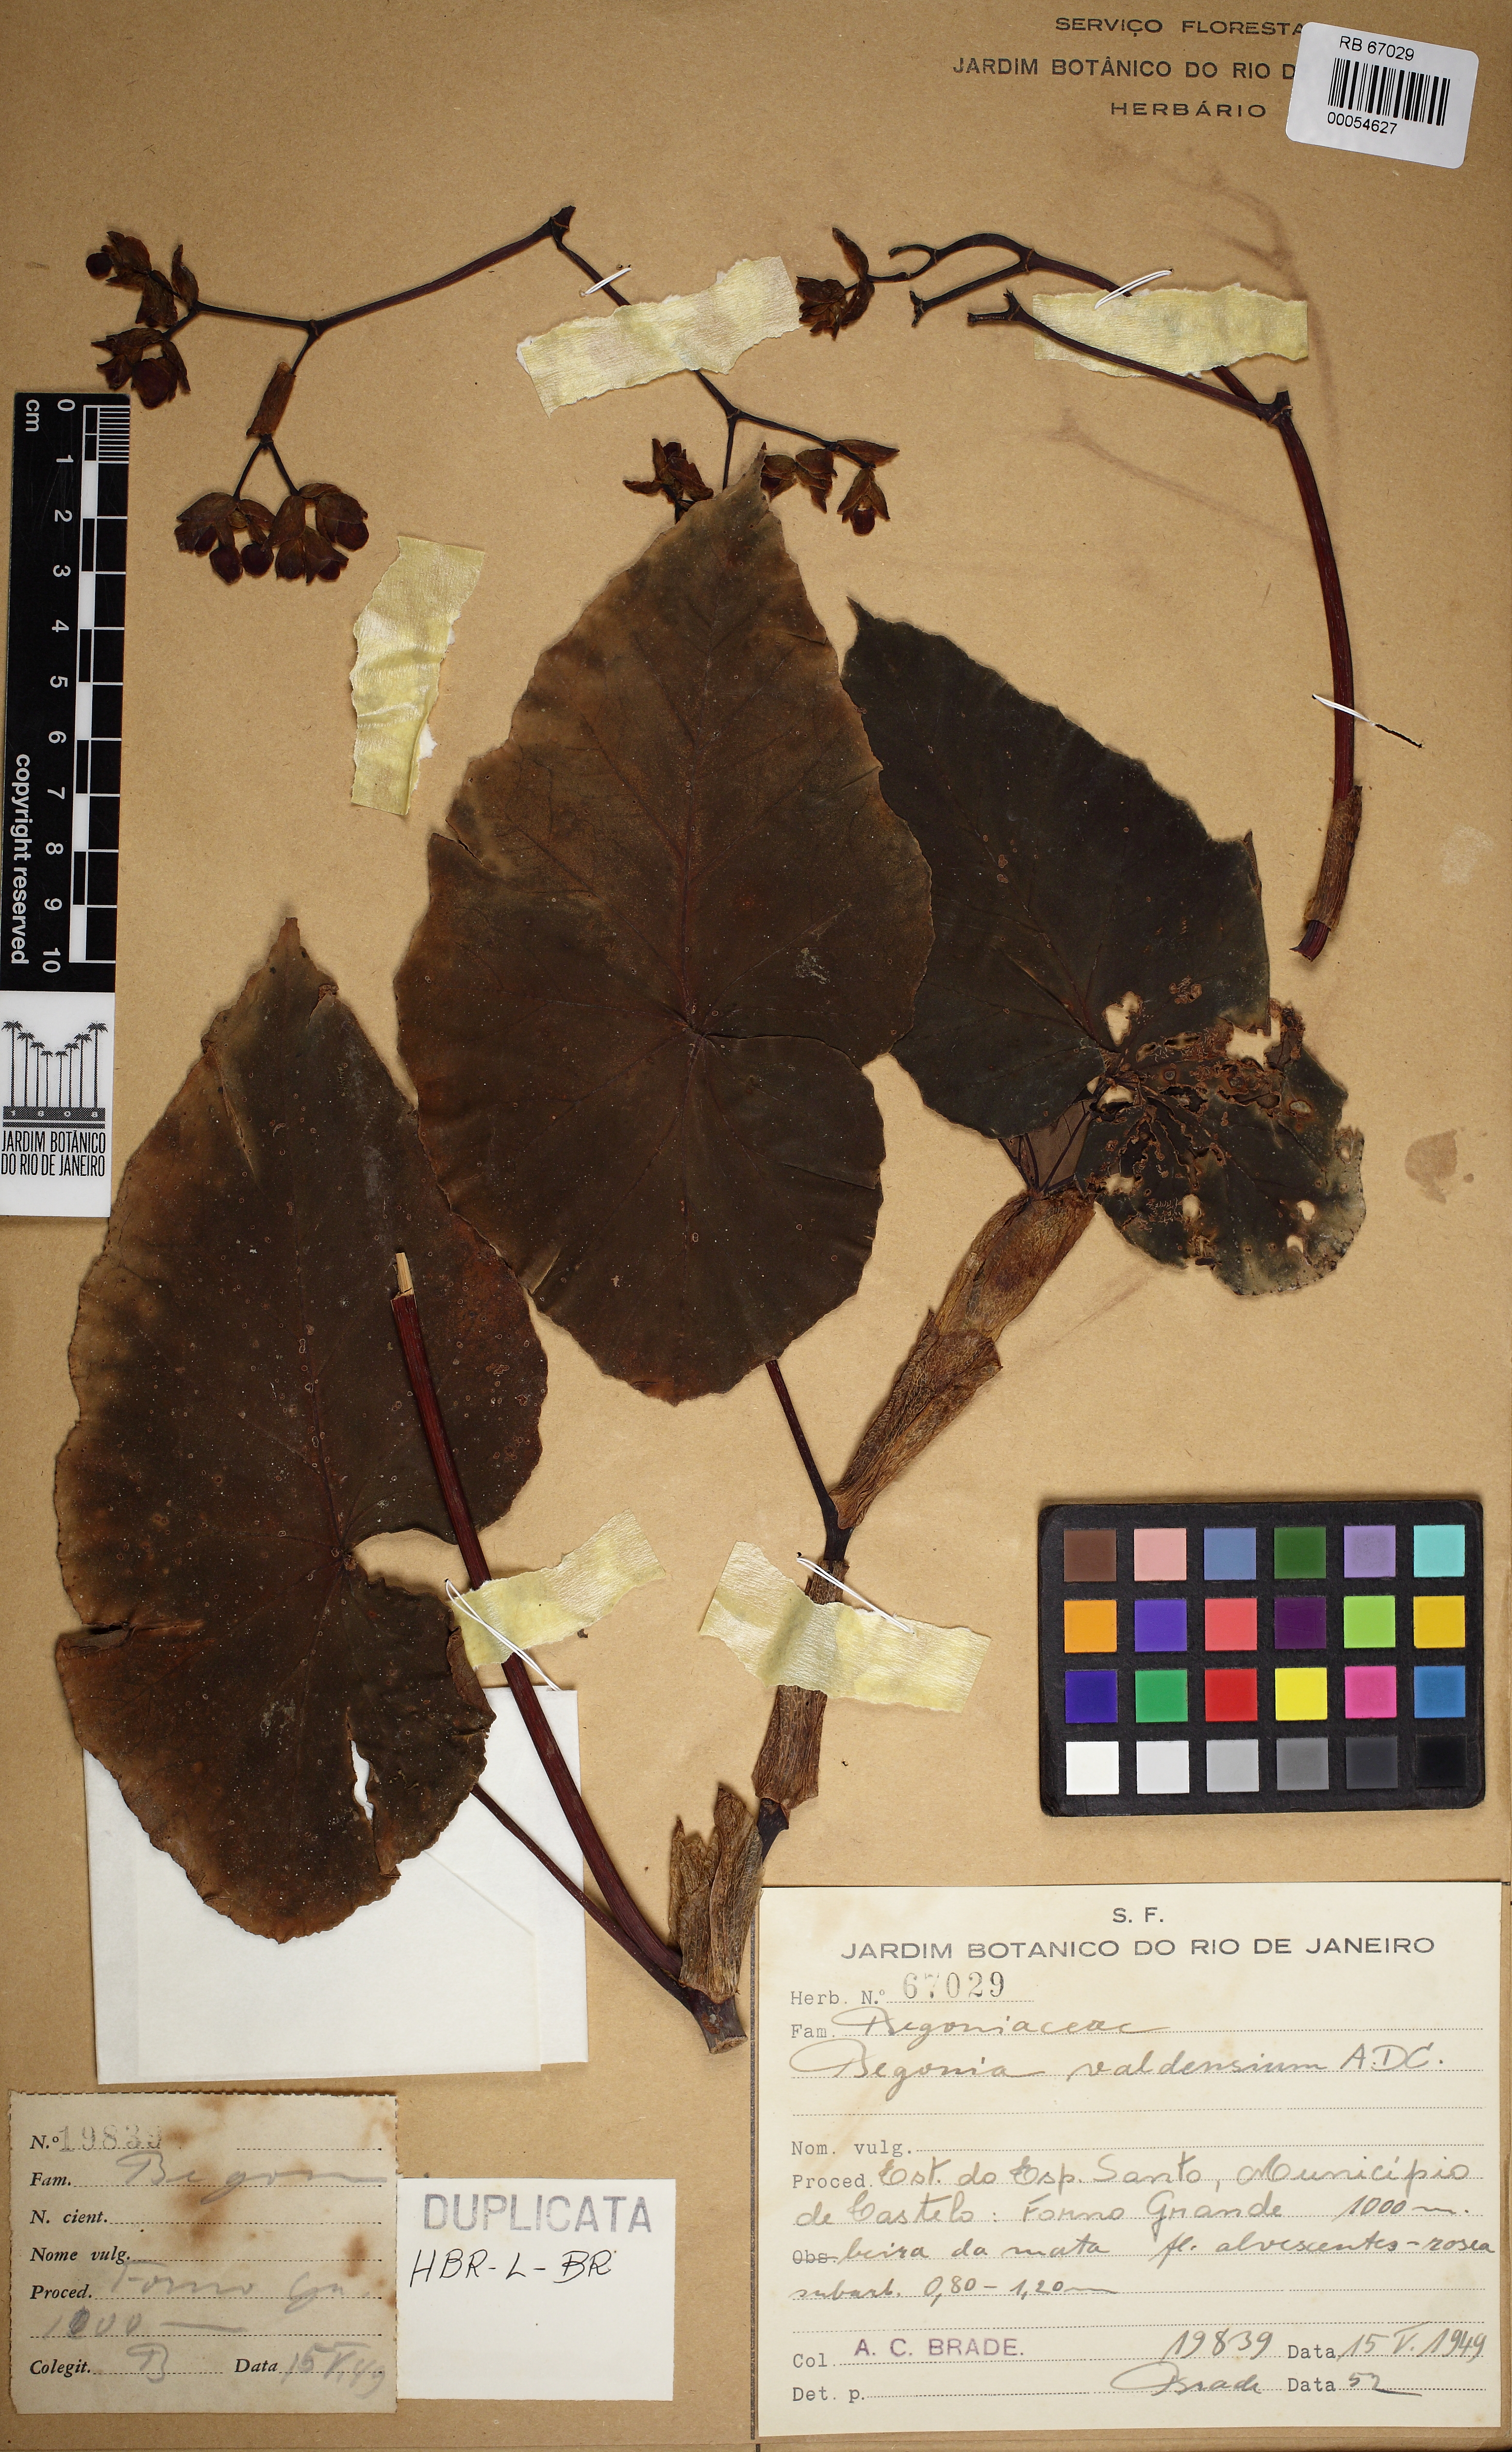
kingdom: Plantae
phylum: Tracheophyta
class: Magnoliopsida
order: Cucurbitales
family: Begoniaceae
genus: Begonia
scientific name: Begonia valdensium
